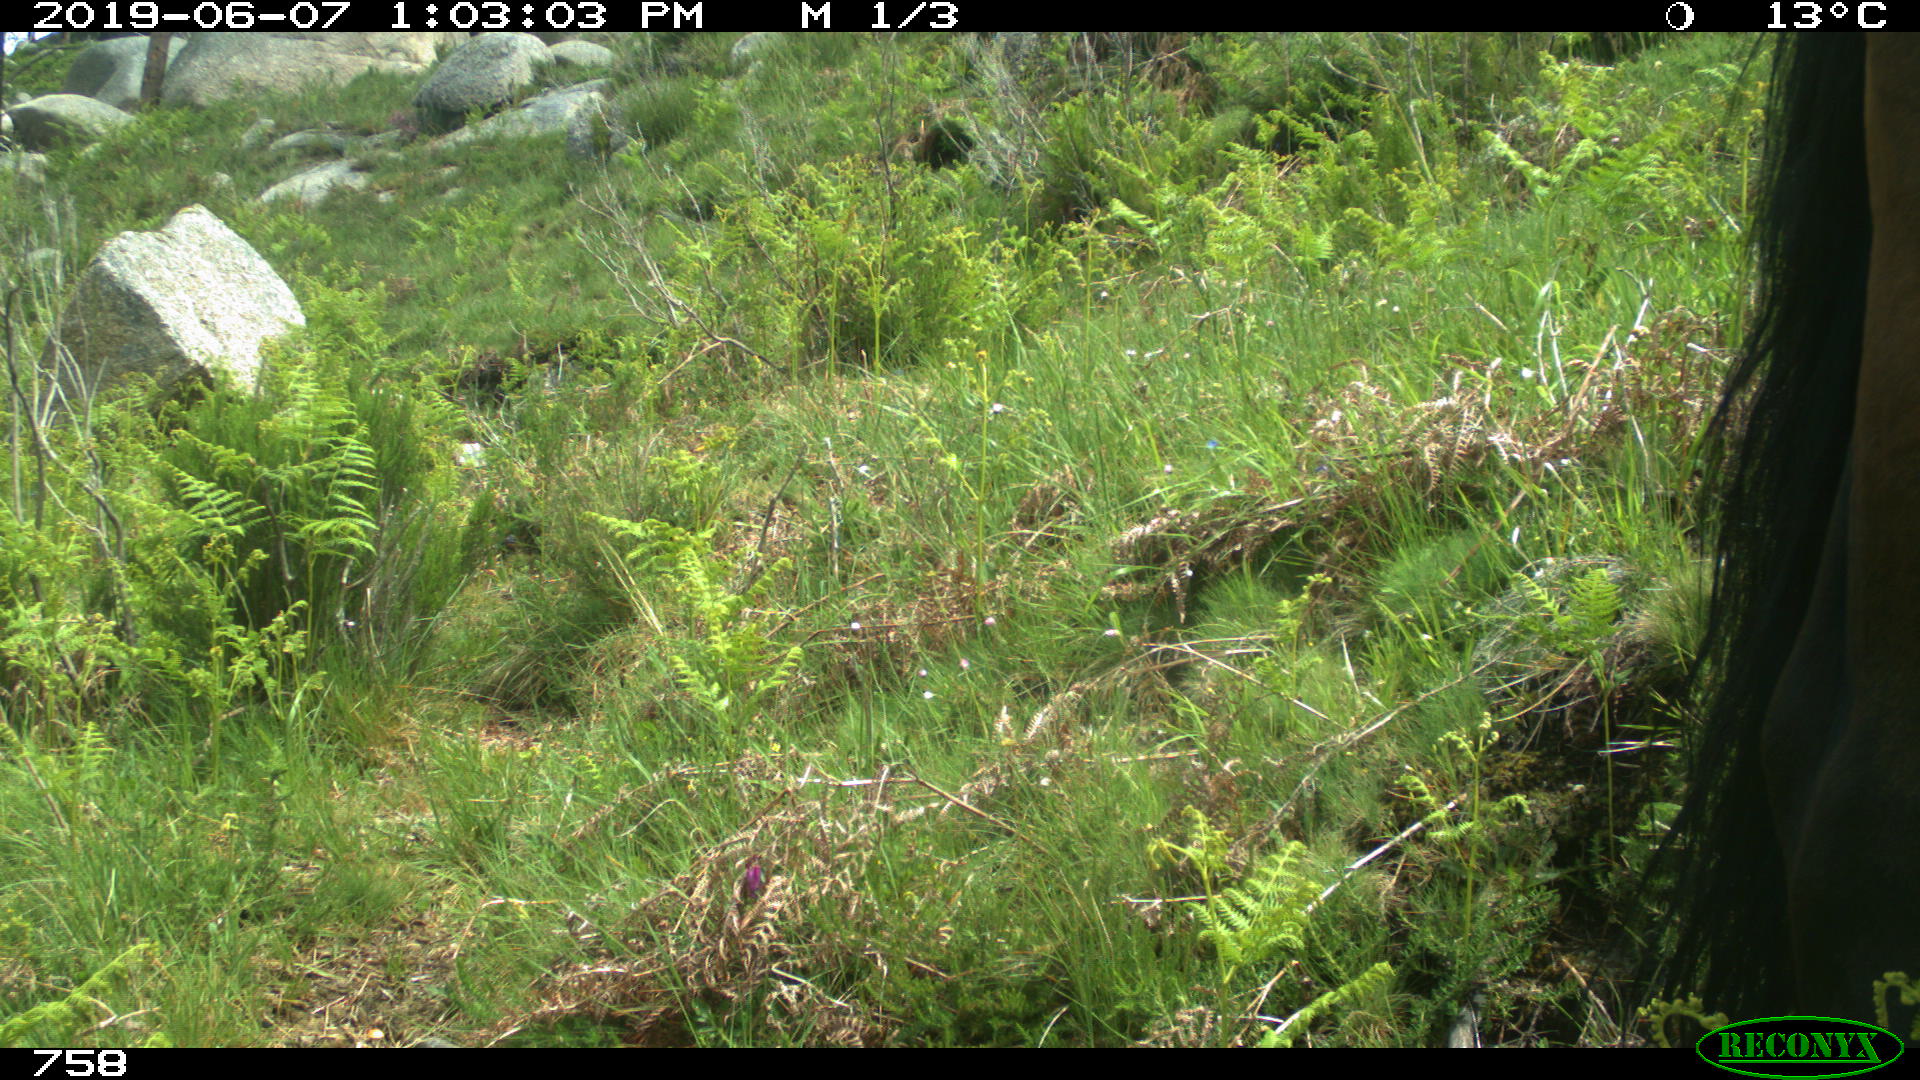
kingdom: Animalia
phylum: Chordata
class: Mammalia
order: Perissodactyla
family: Equidae
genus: Equus
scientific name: Equus caballus
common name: Horse
